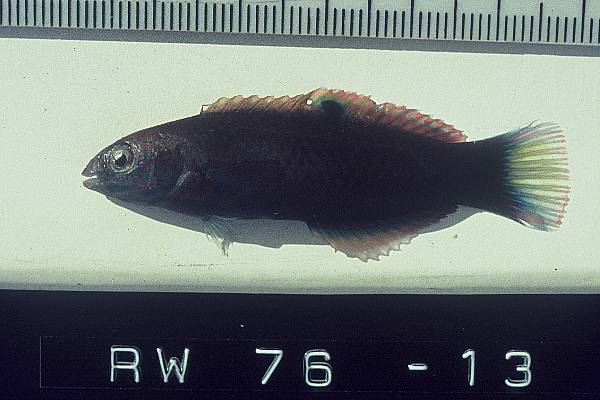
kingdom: Animalia
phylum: Chordata
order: Perciformes
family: Labridae
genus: Thalassoma
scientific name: Thalassoma purpureum
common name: Parrotfish
